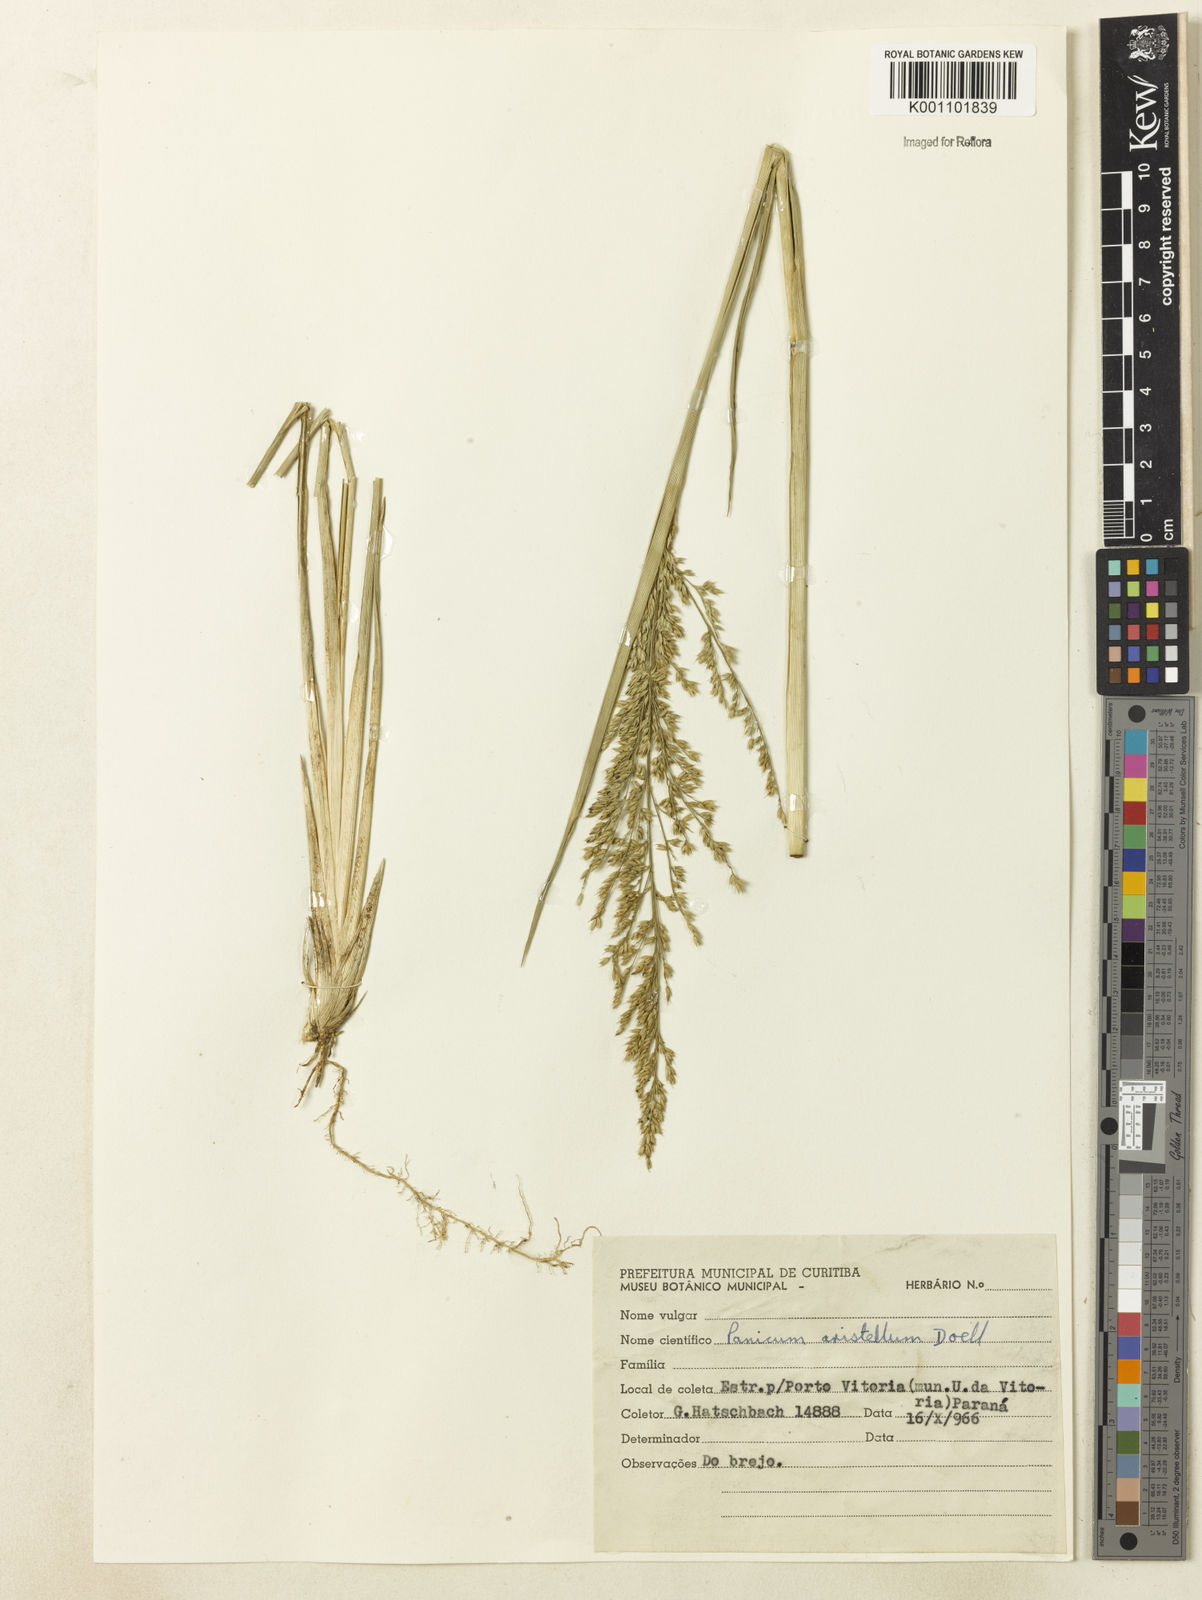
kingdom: Plantae
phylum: Tracheophyta
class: Liliopsida
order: Poales
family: Poaceae
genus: Panicum
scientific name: Panicum
